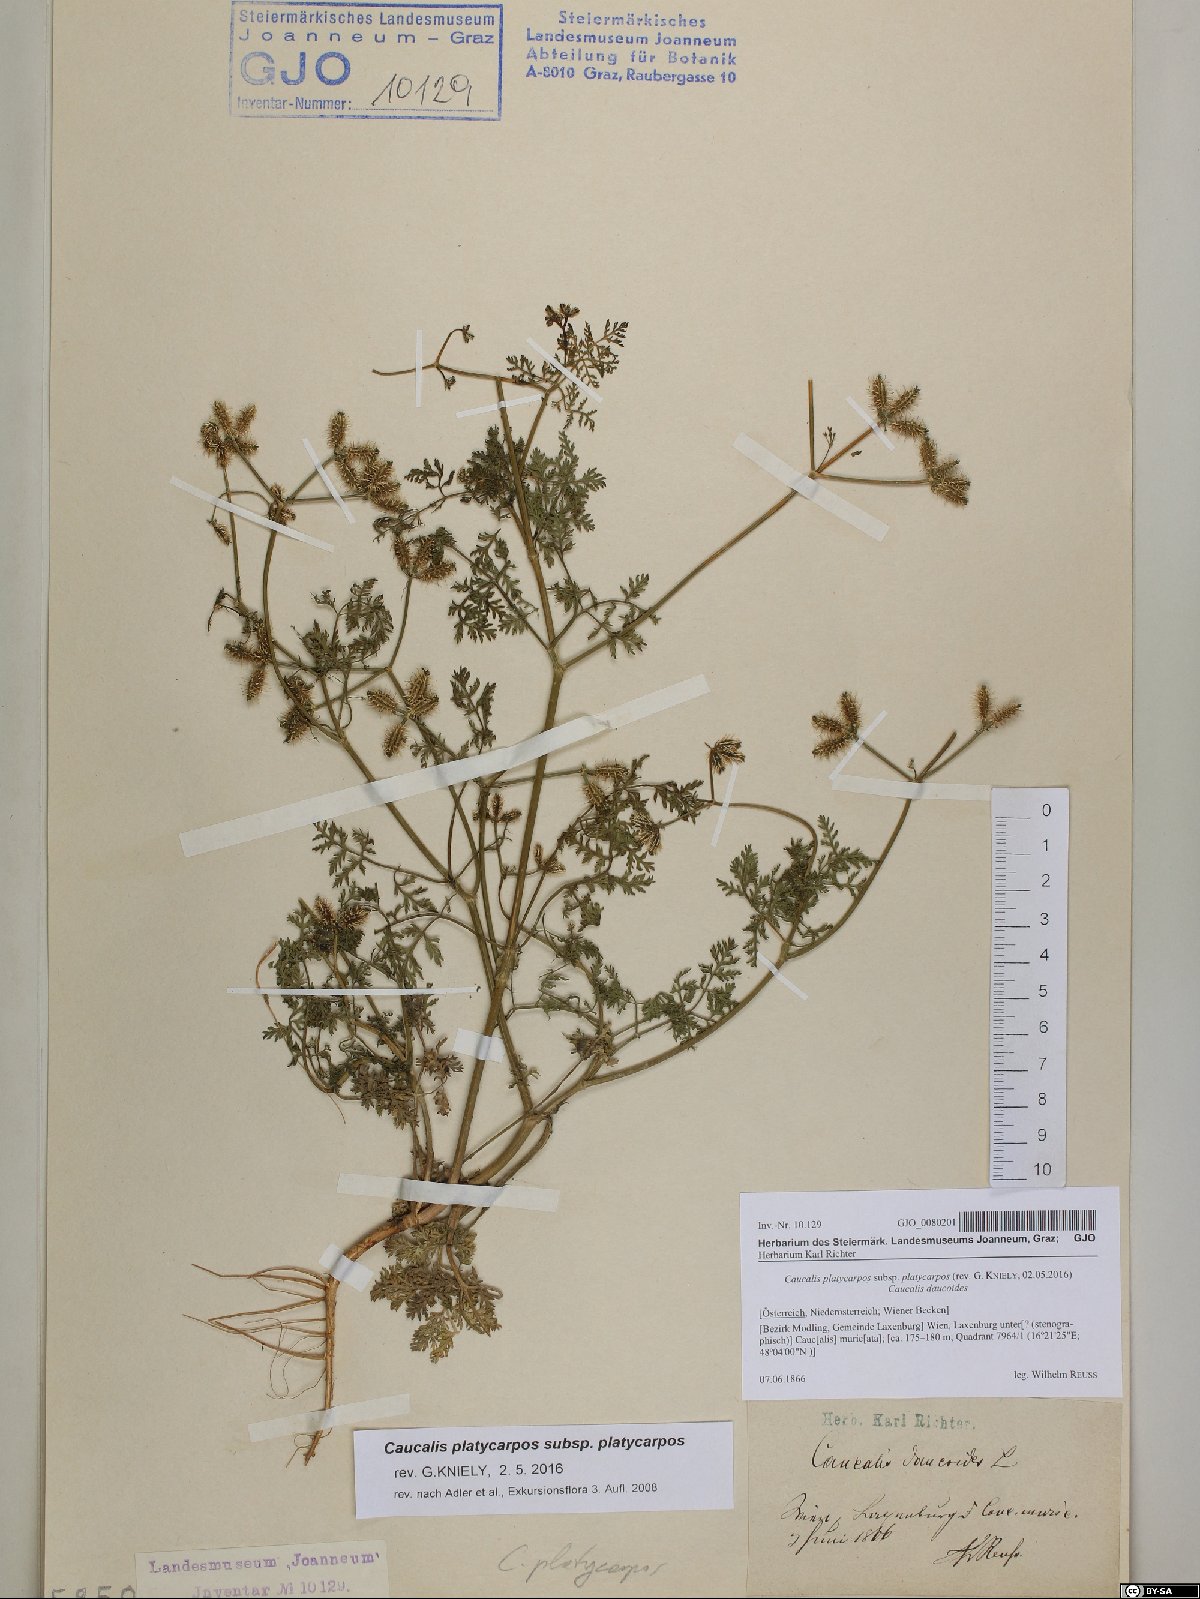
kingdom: Plantae
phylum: Tracheophyta
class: Magnoliopsida
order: Apiales
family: Apiaceae
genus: Caucalis
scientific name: Caucalis platycarpos
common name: Small bur-parsley
